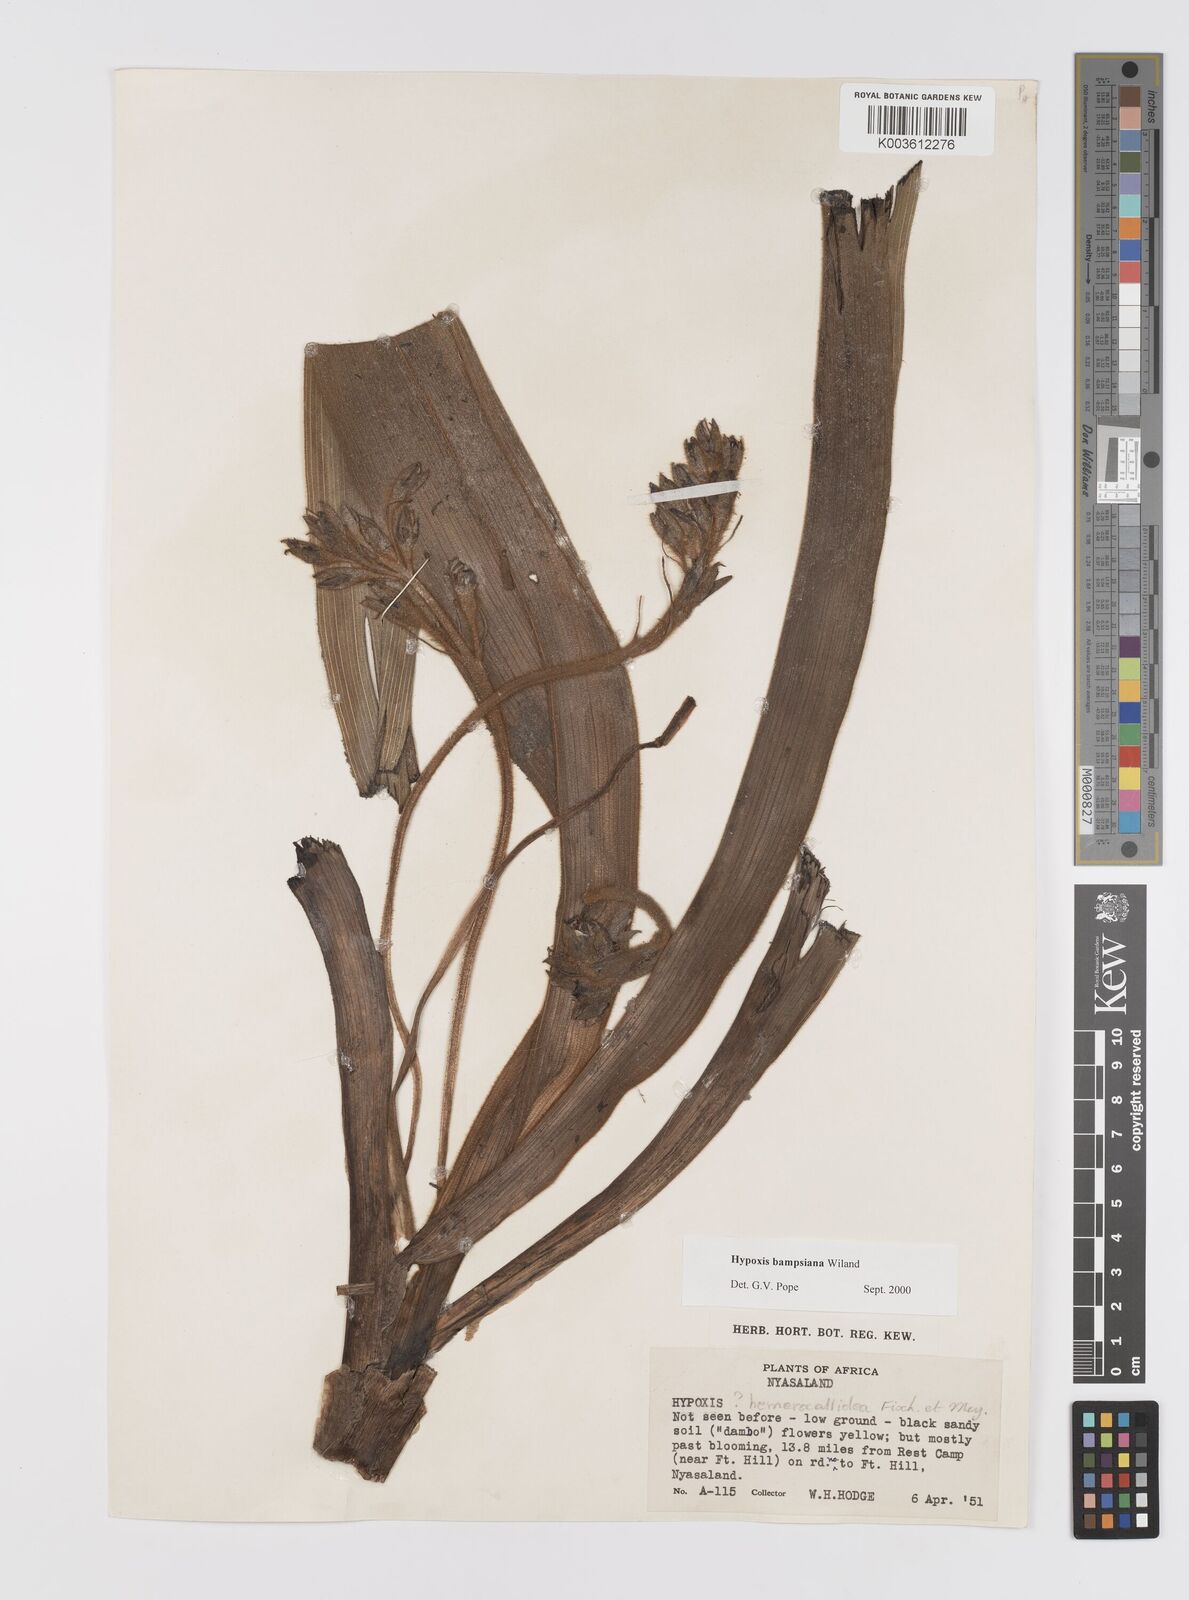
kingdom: Plantae
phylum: Tracheophyta
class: Liliopsida
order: Asparagales
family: Hypoxidaceae
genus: Hypoxis
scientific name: Hypoxis bampsiana
